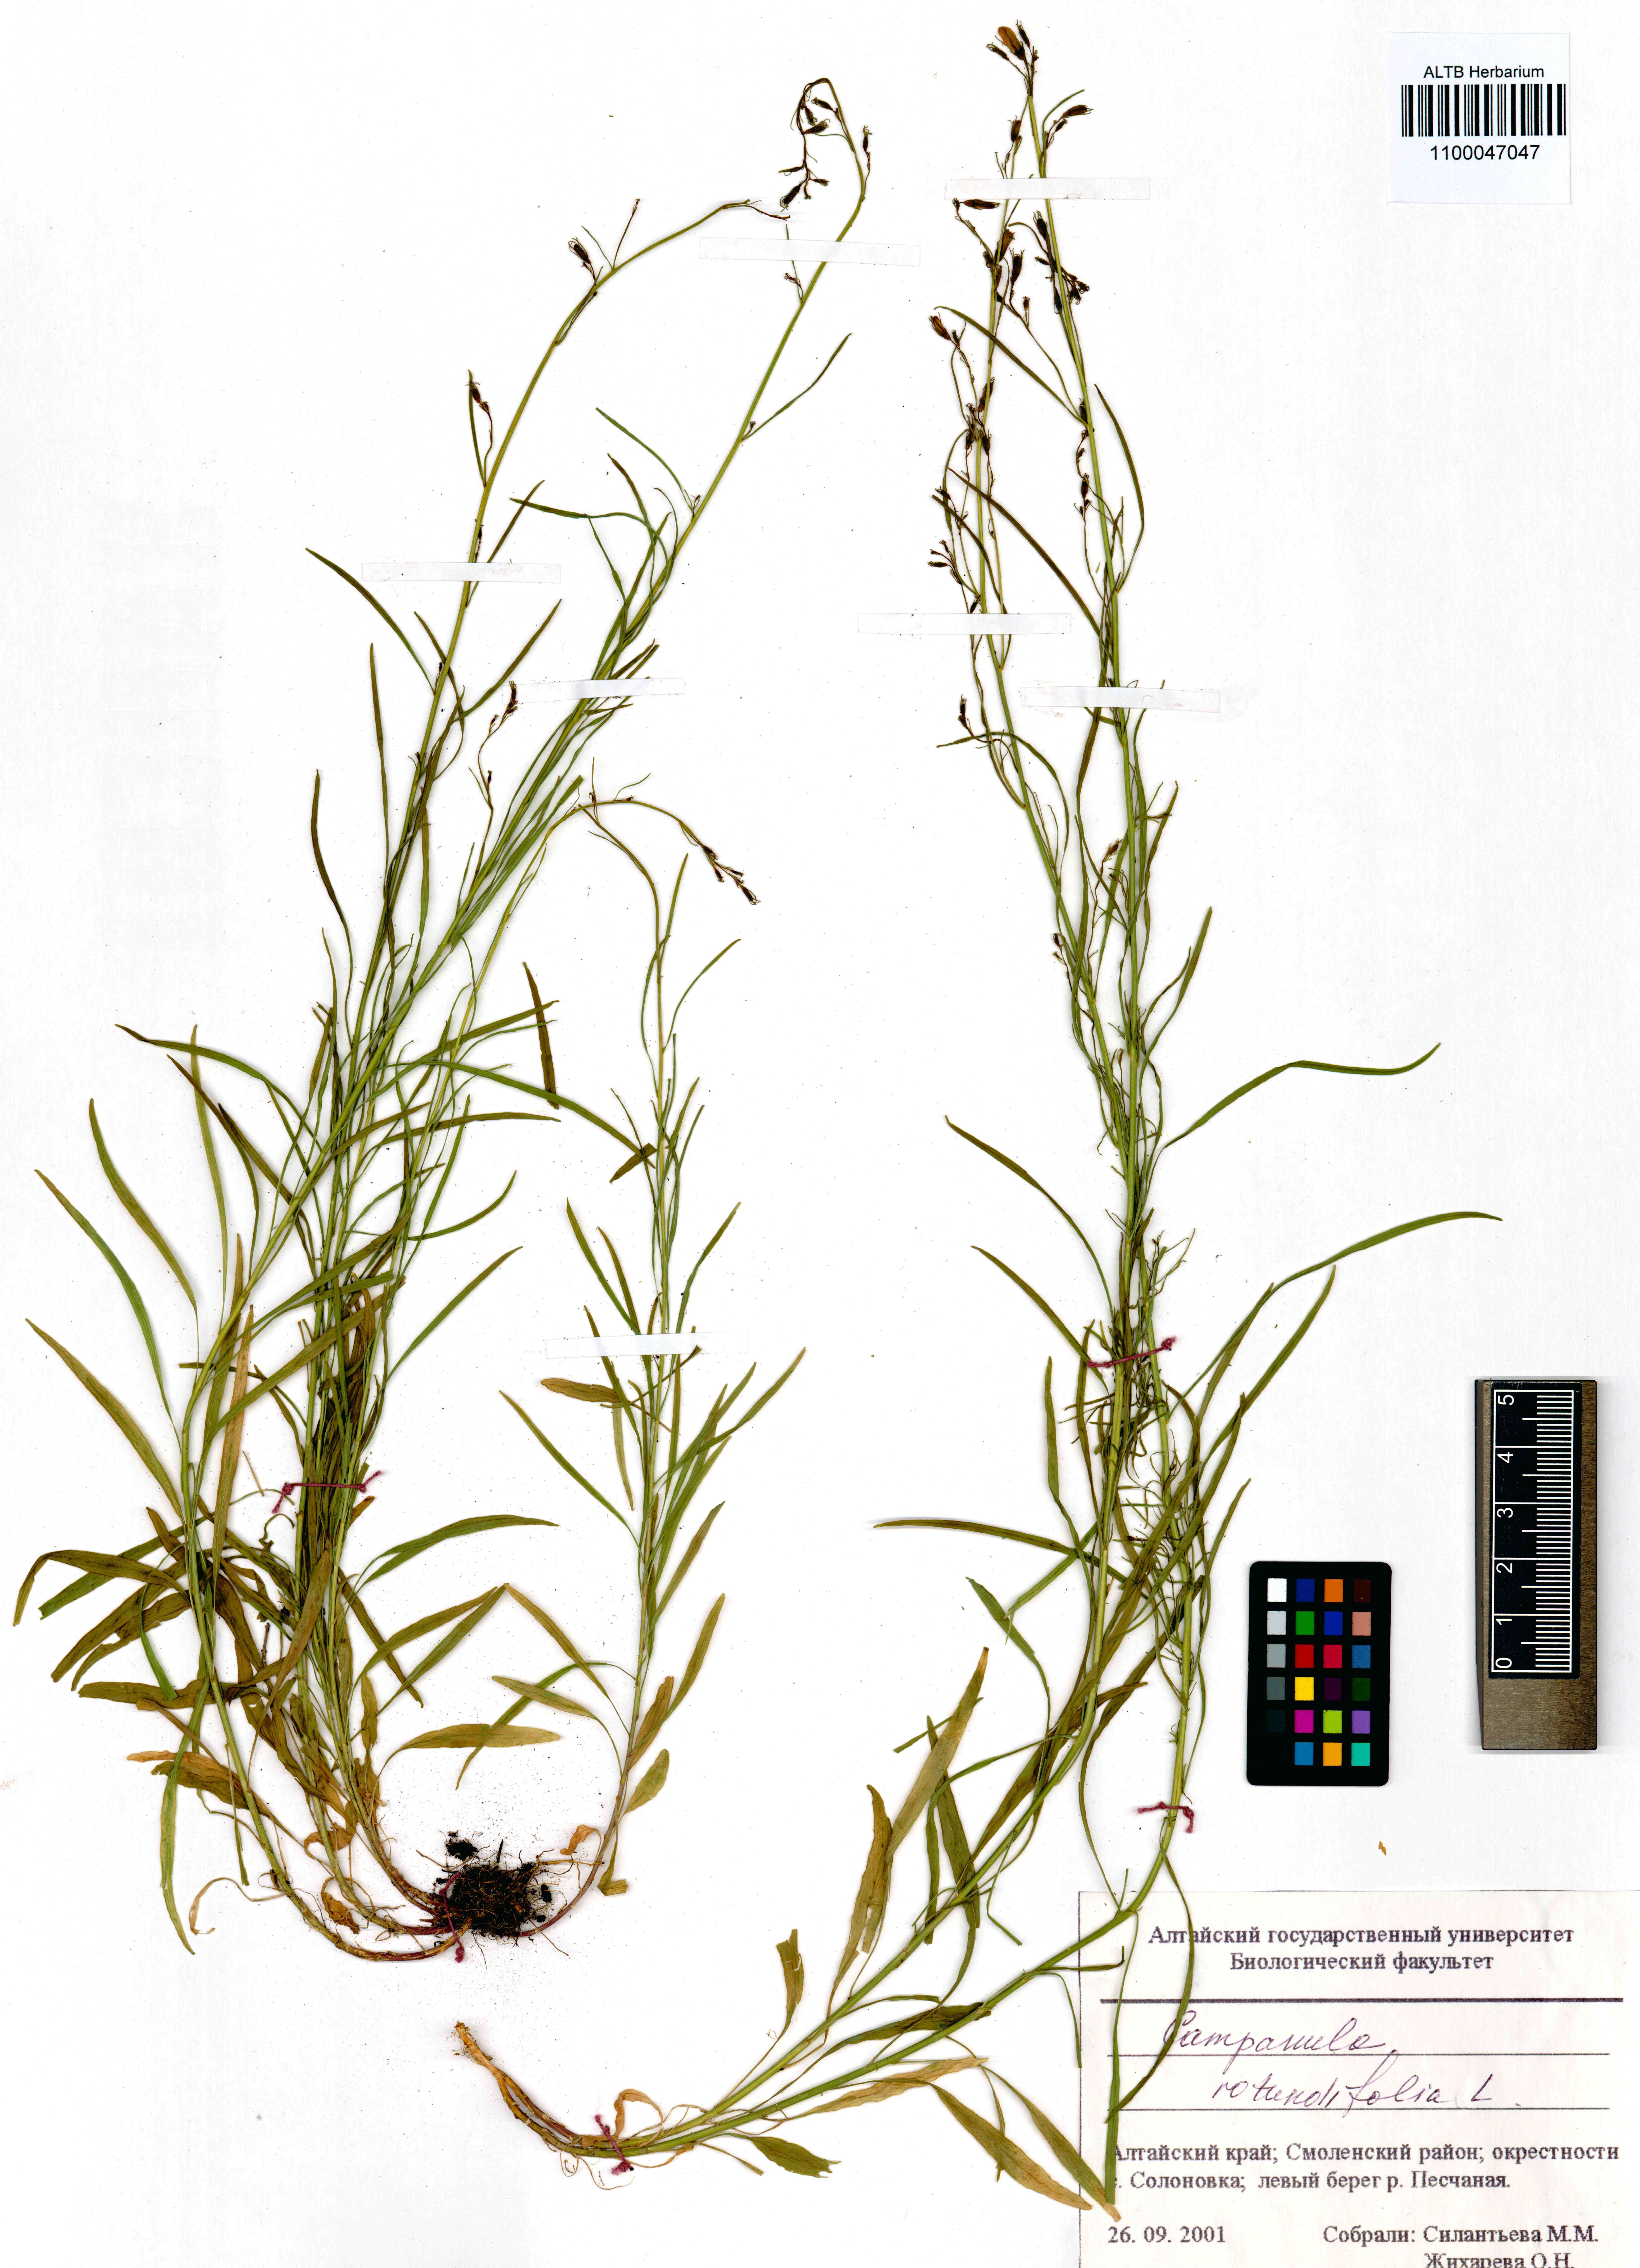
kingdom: Plantae
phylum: Tracheophyta
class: Magnoliopsida
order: Asterales
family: Campanulaceae
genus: Campanula
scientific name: Campanula rotundifolia
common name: Harebell
